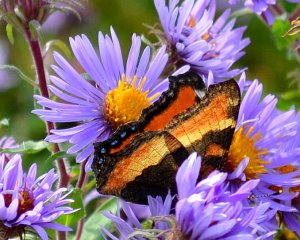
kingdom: Animalia
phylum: Arthropoda
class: Insecta
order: Lepidoptera
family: Nymphalidae
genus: Aglais
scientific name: Aglais milberti
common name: Milbert's Tortoiseshell
